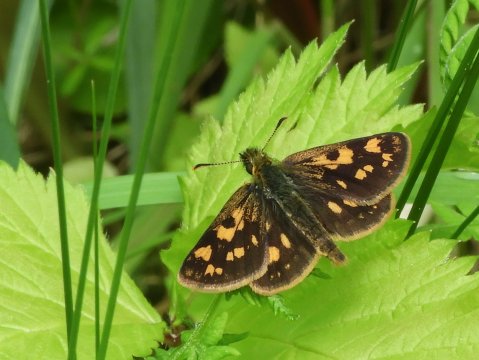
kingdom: Animalia
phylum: Arthropoda
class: Insecta
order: Lepidoptera
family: Hesperiidae
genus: Carterocephalus
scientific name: Carterocephalus palaemon
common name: Chequered Skipper
